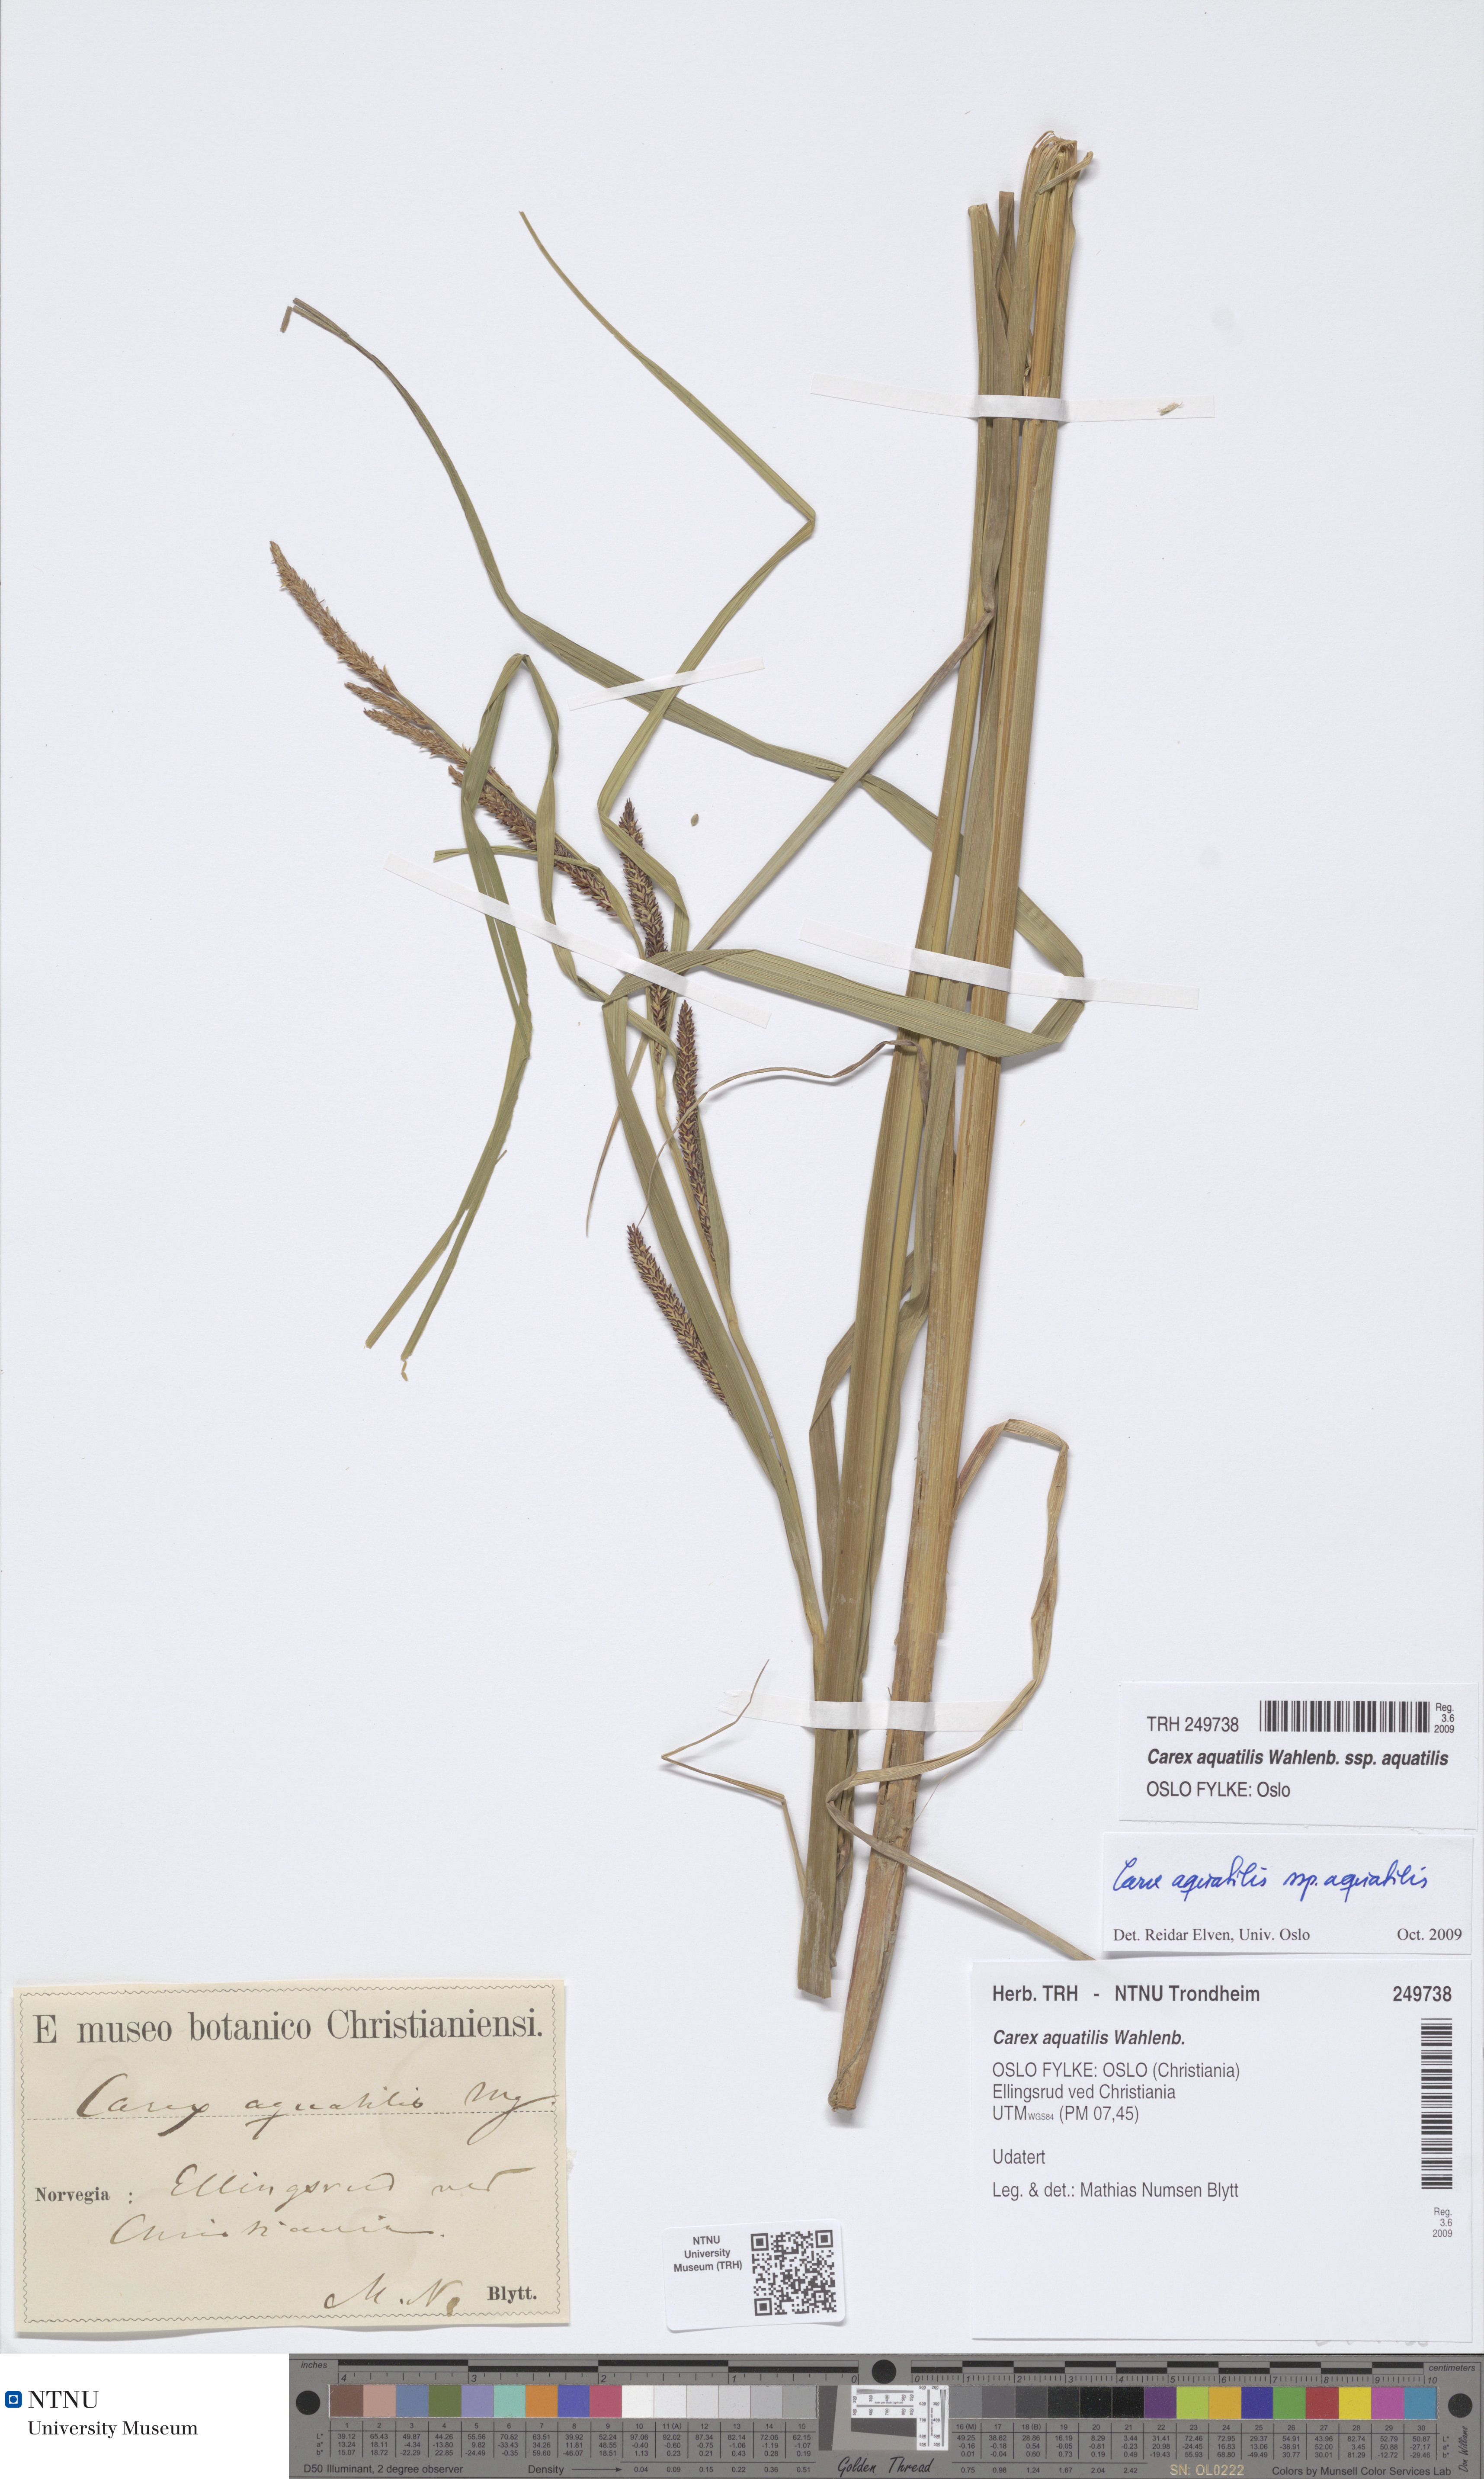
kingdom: Plantae
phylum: Tracheophyta
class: Liliopsida
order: Poales
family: Cyperaceae
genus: Carex
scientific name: Carex aquatilis
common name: Water sedge
